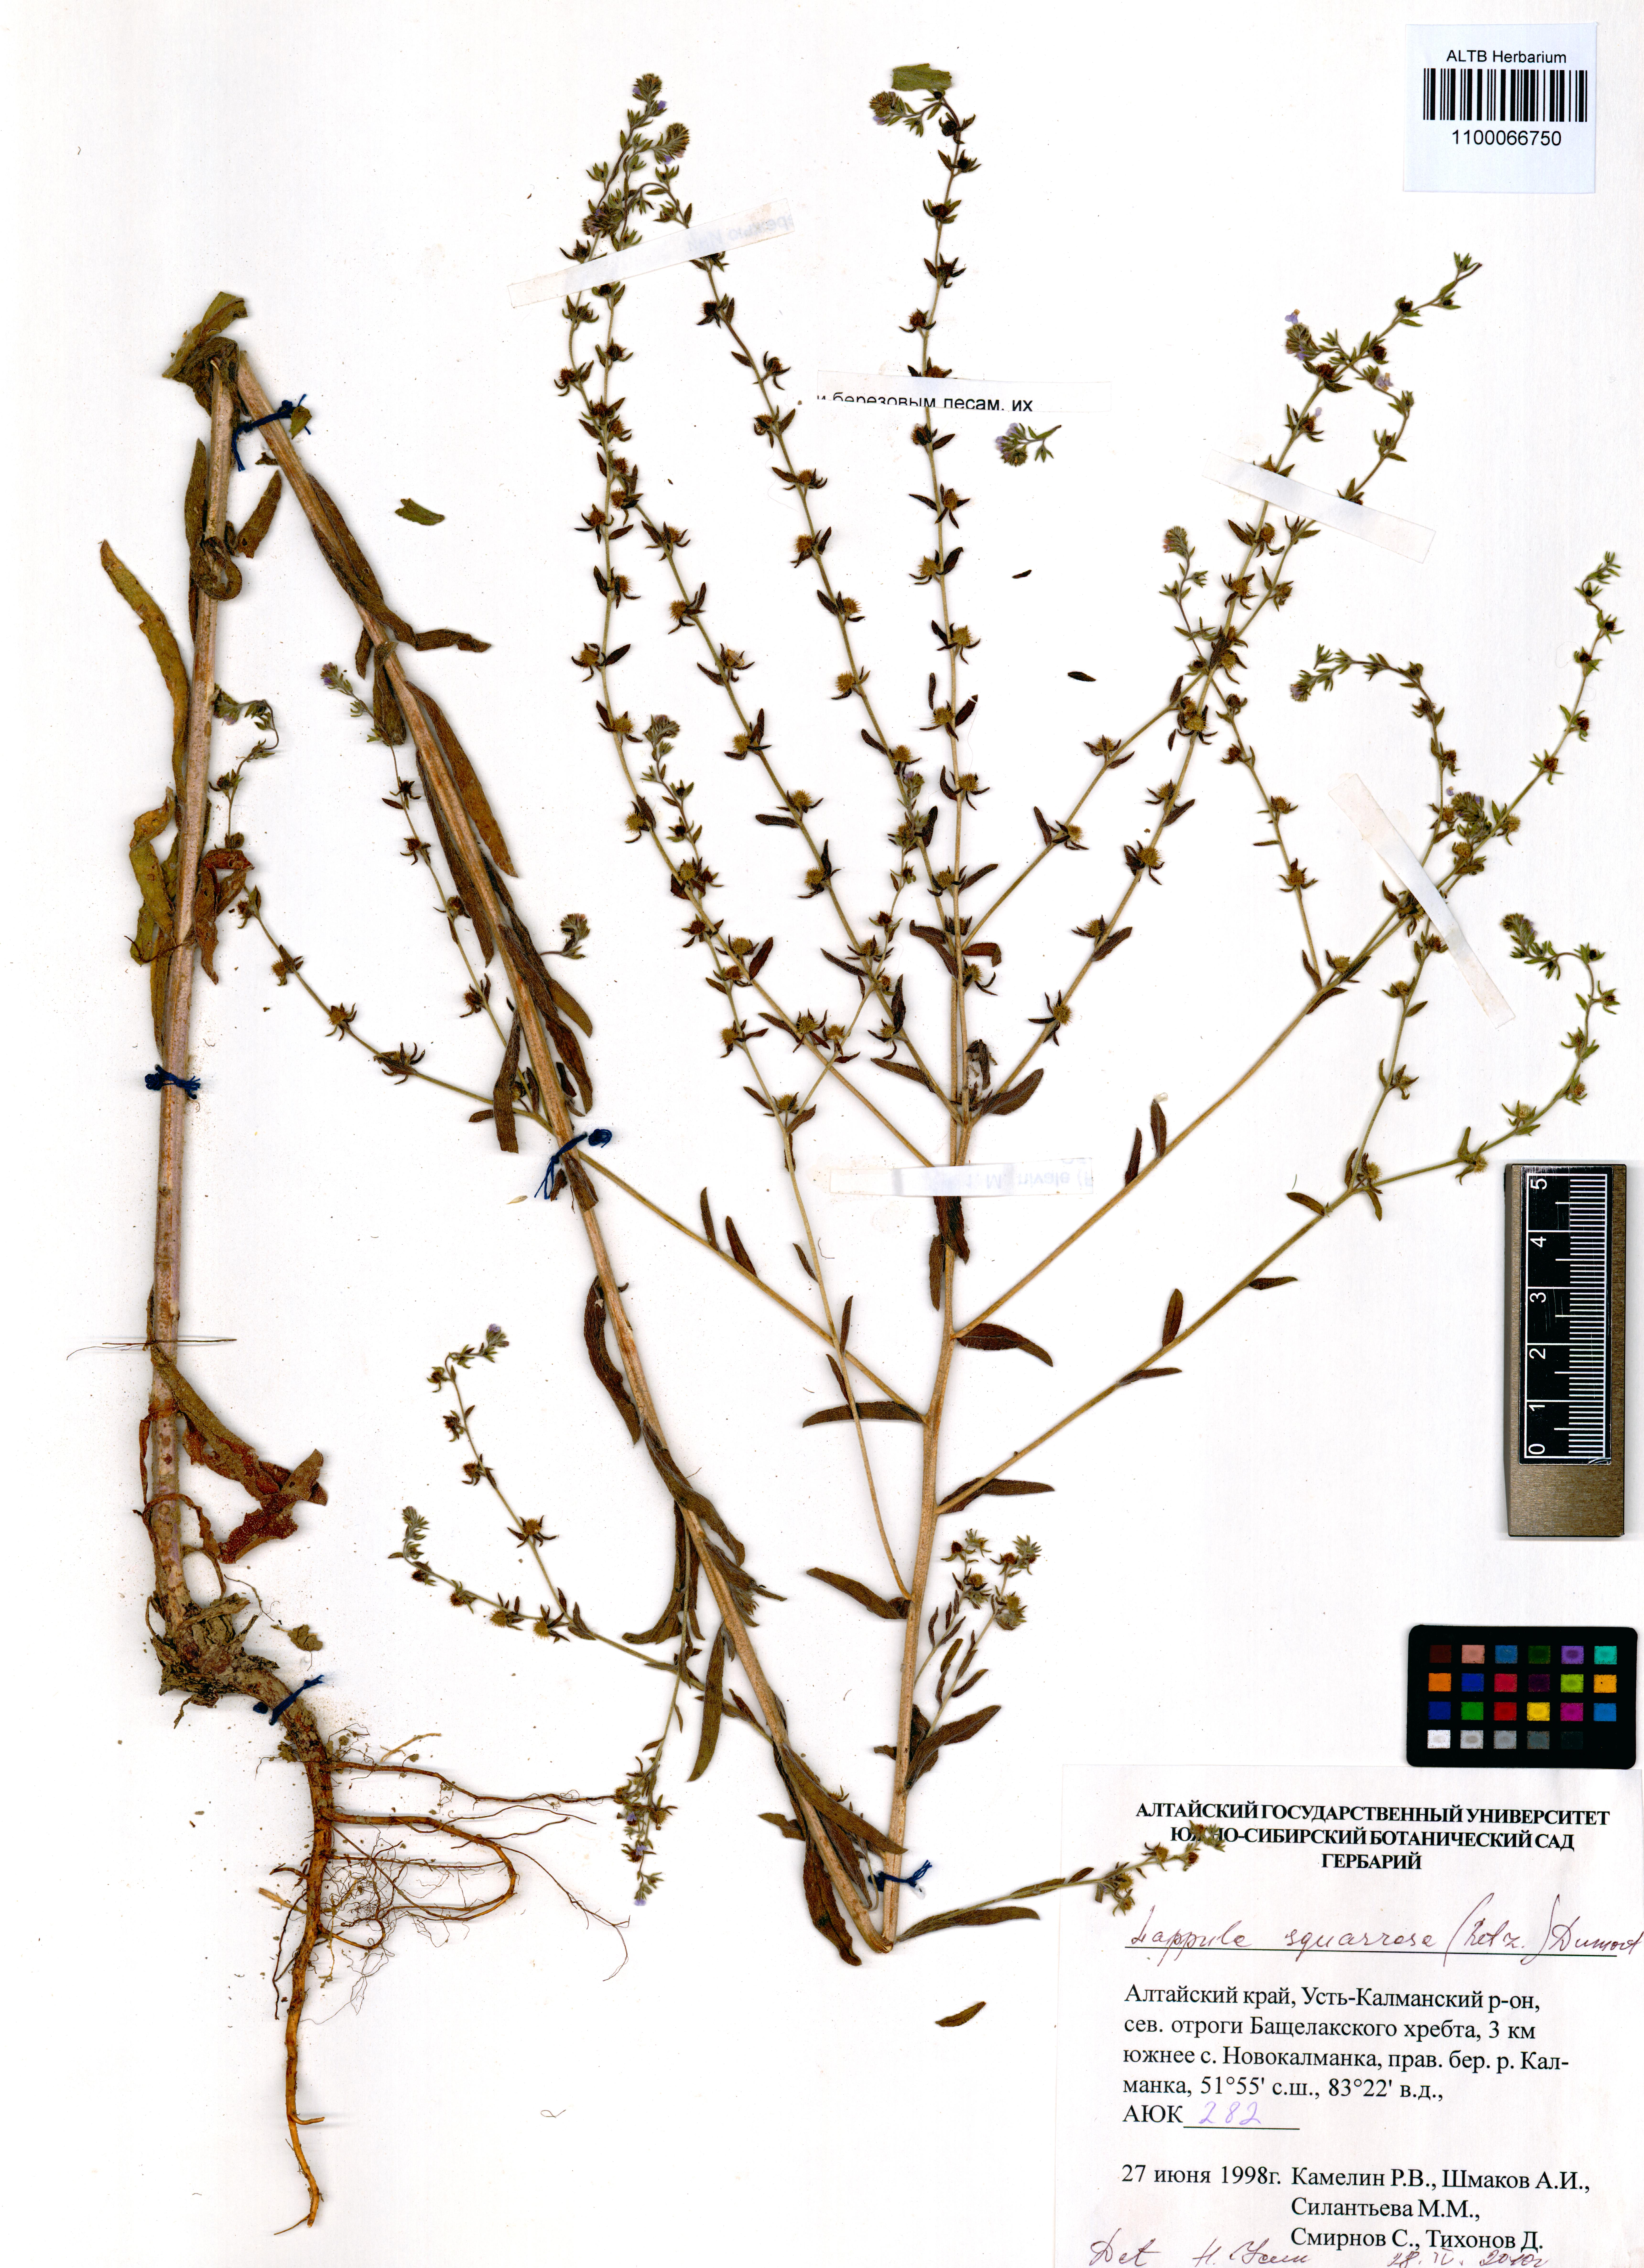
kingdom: Plantae
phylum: Tracheophyta
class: Magnoliopsida
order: Boraginales
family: Boraginaceae
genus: Lappula
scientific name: Lappula squarrosa
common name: European stickseed
